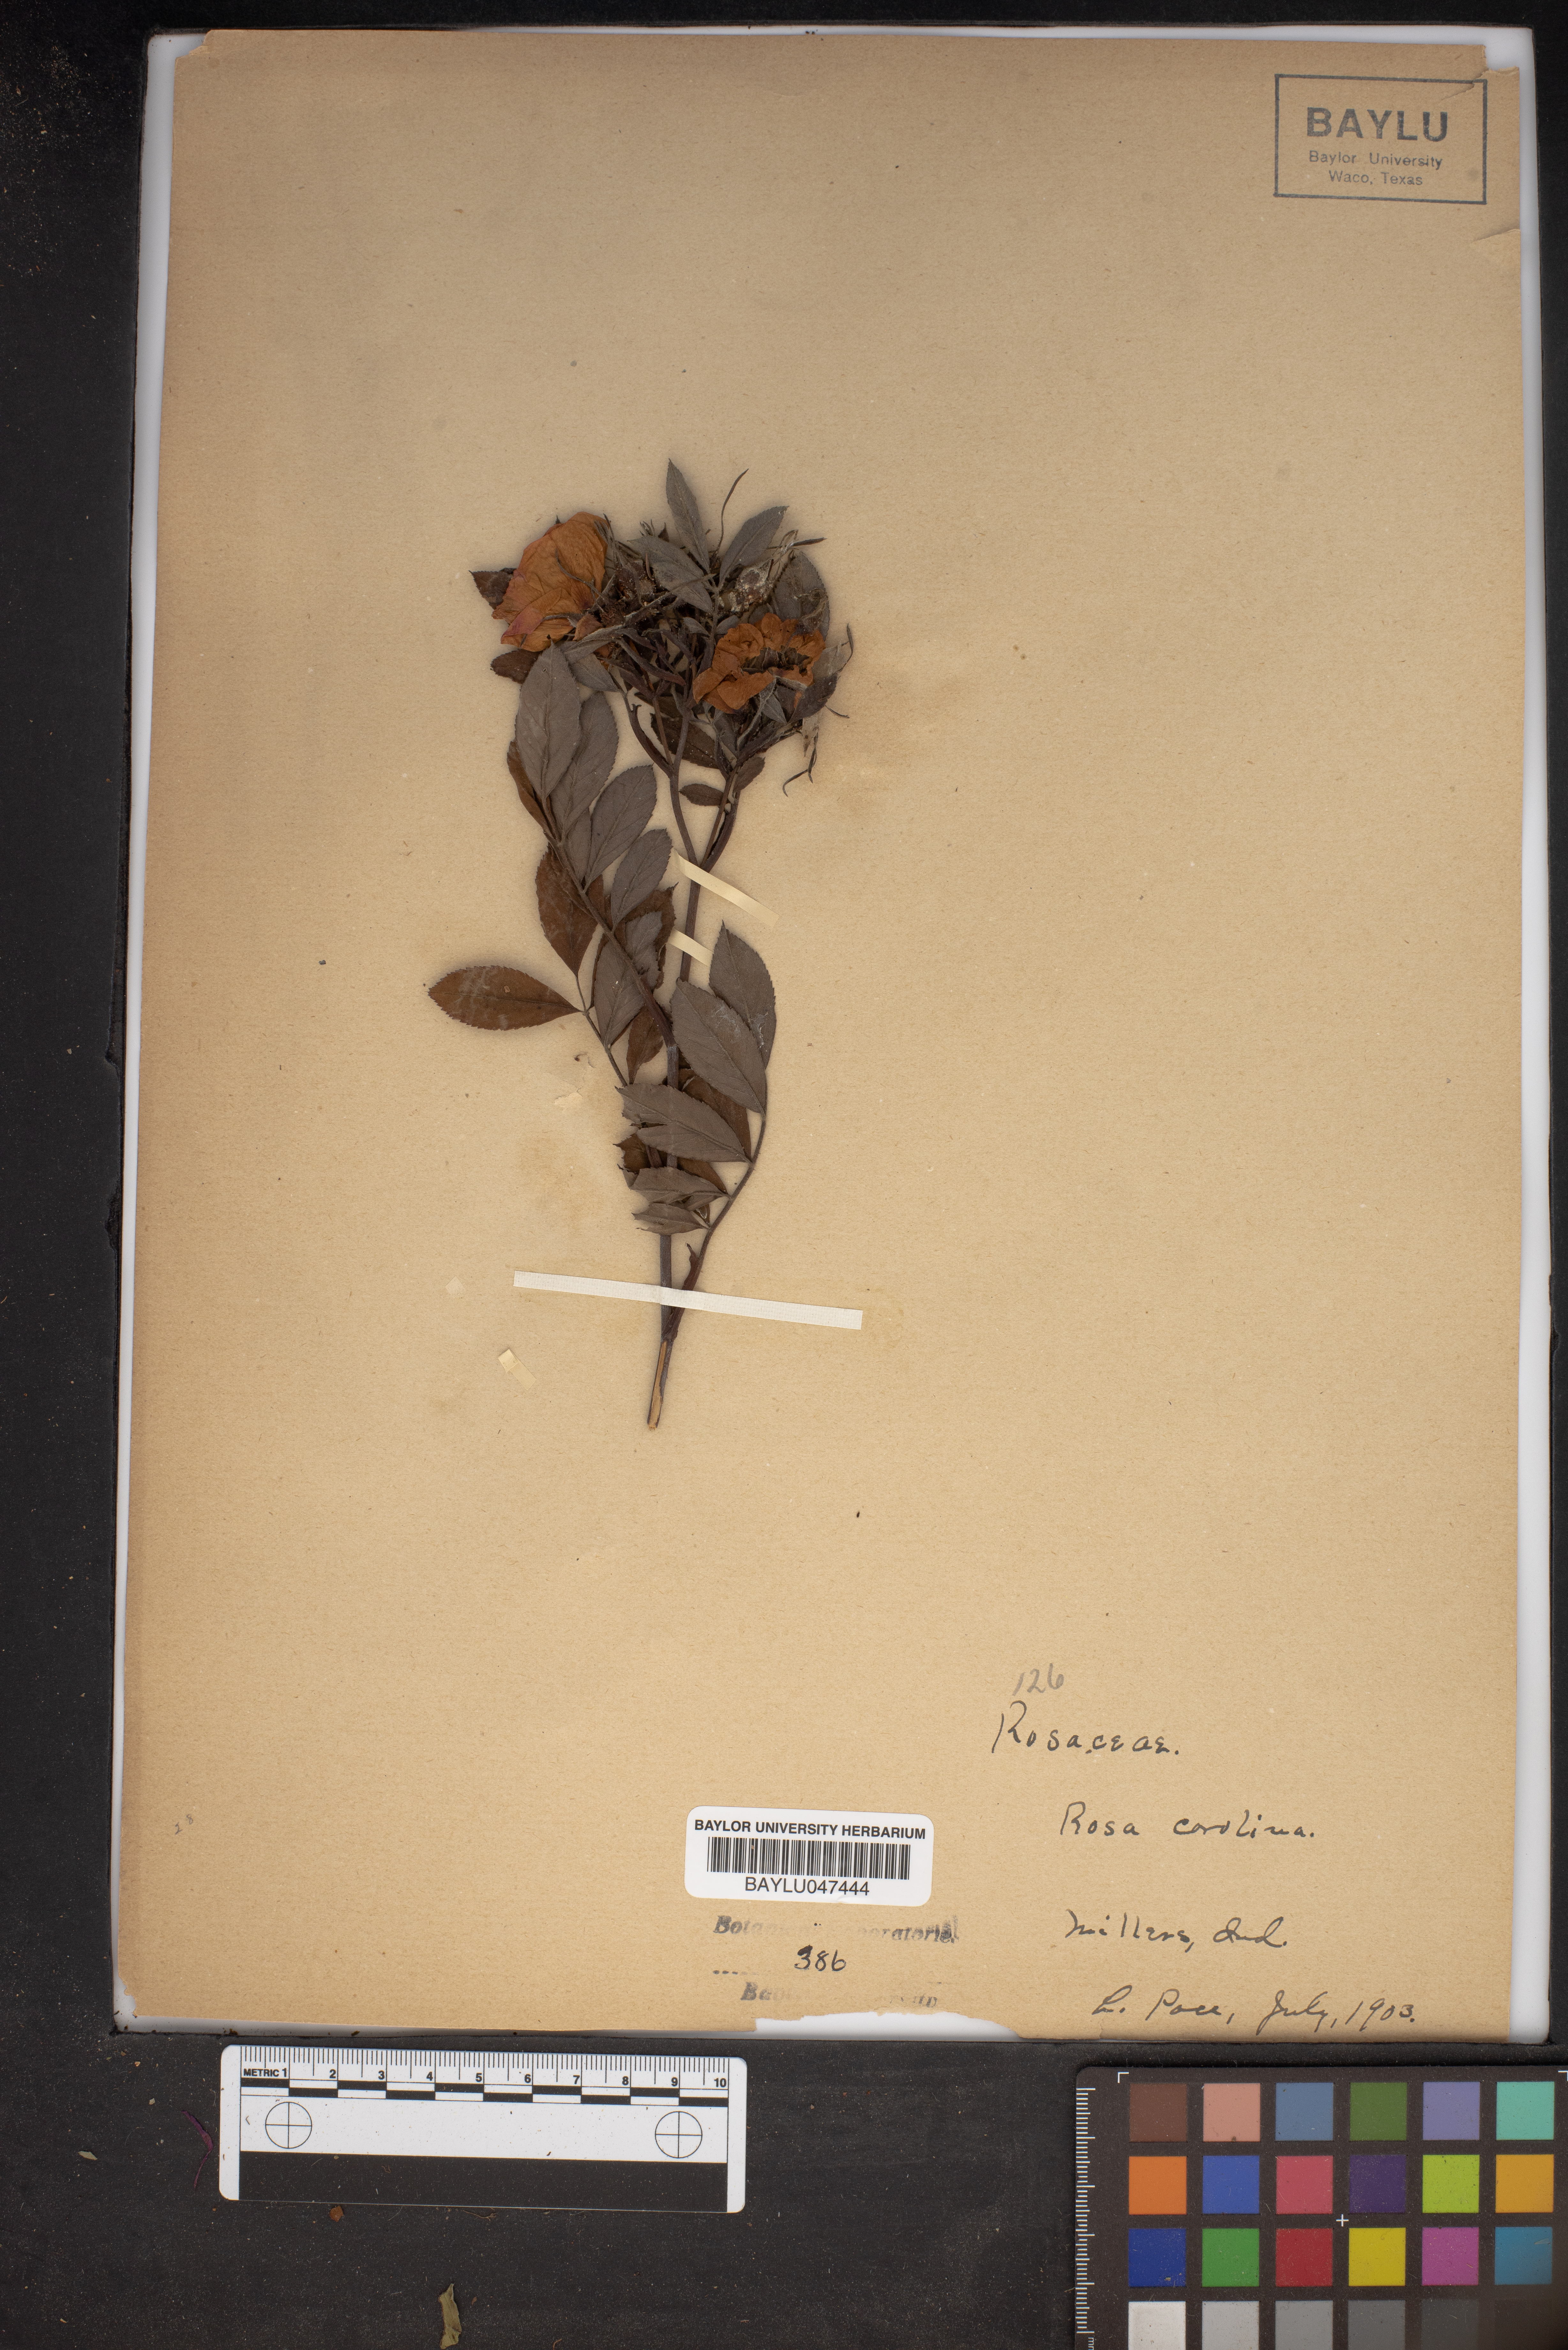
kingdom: Plantae
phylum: Tracheophyta
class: Magnoliopsida
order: Rosales
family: Rosaceae
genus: Rosa
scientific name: Rosa carolina
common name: Pasture rose
